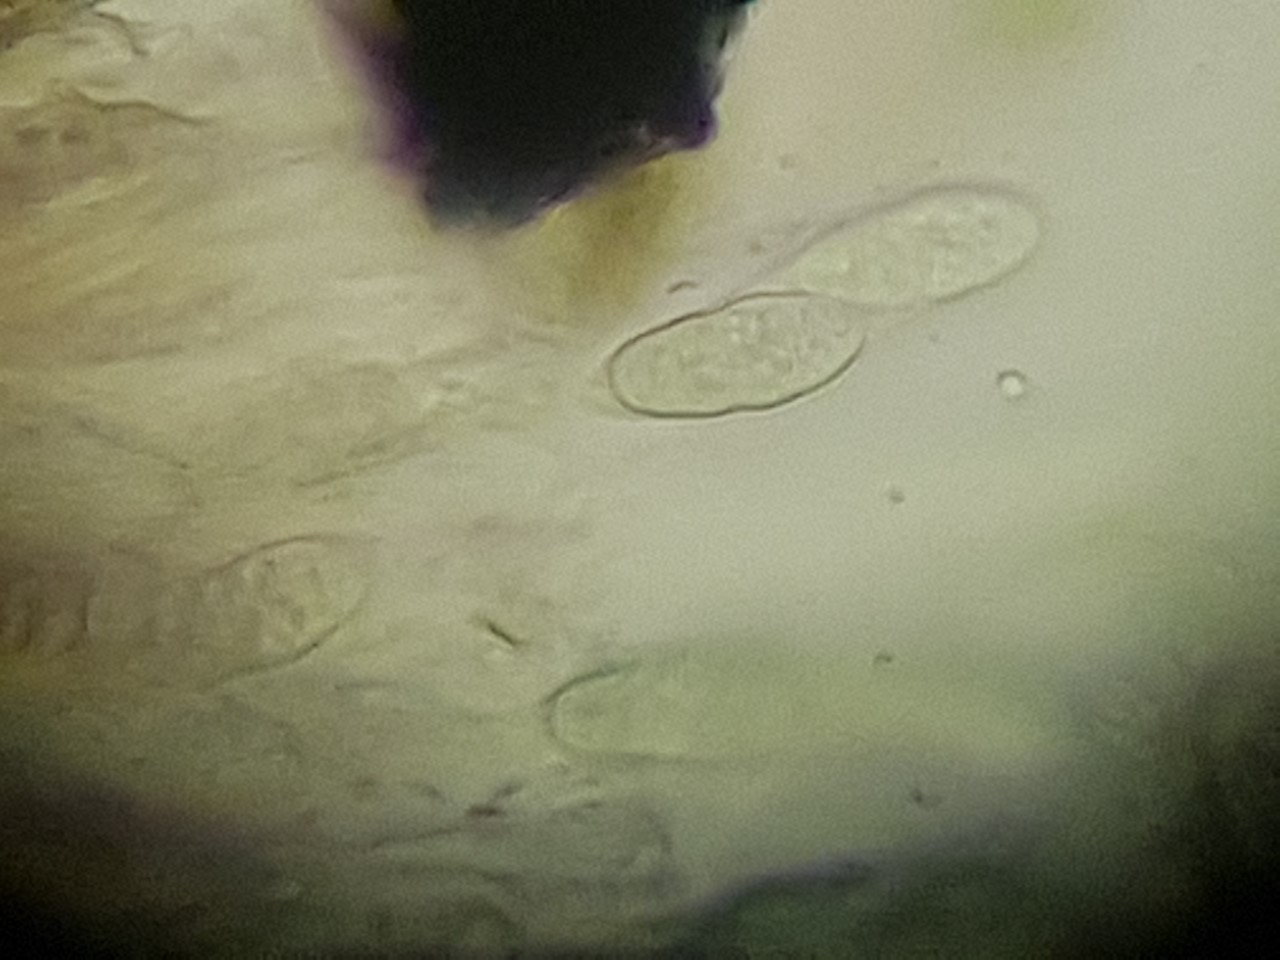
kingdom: Fungi
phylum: Ascomycota
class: Dothideomycetes
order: Hysteriales
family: Hysteriaceae
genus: Hysterobrevium
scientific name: Hysterobrevium smilacis
